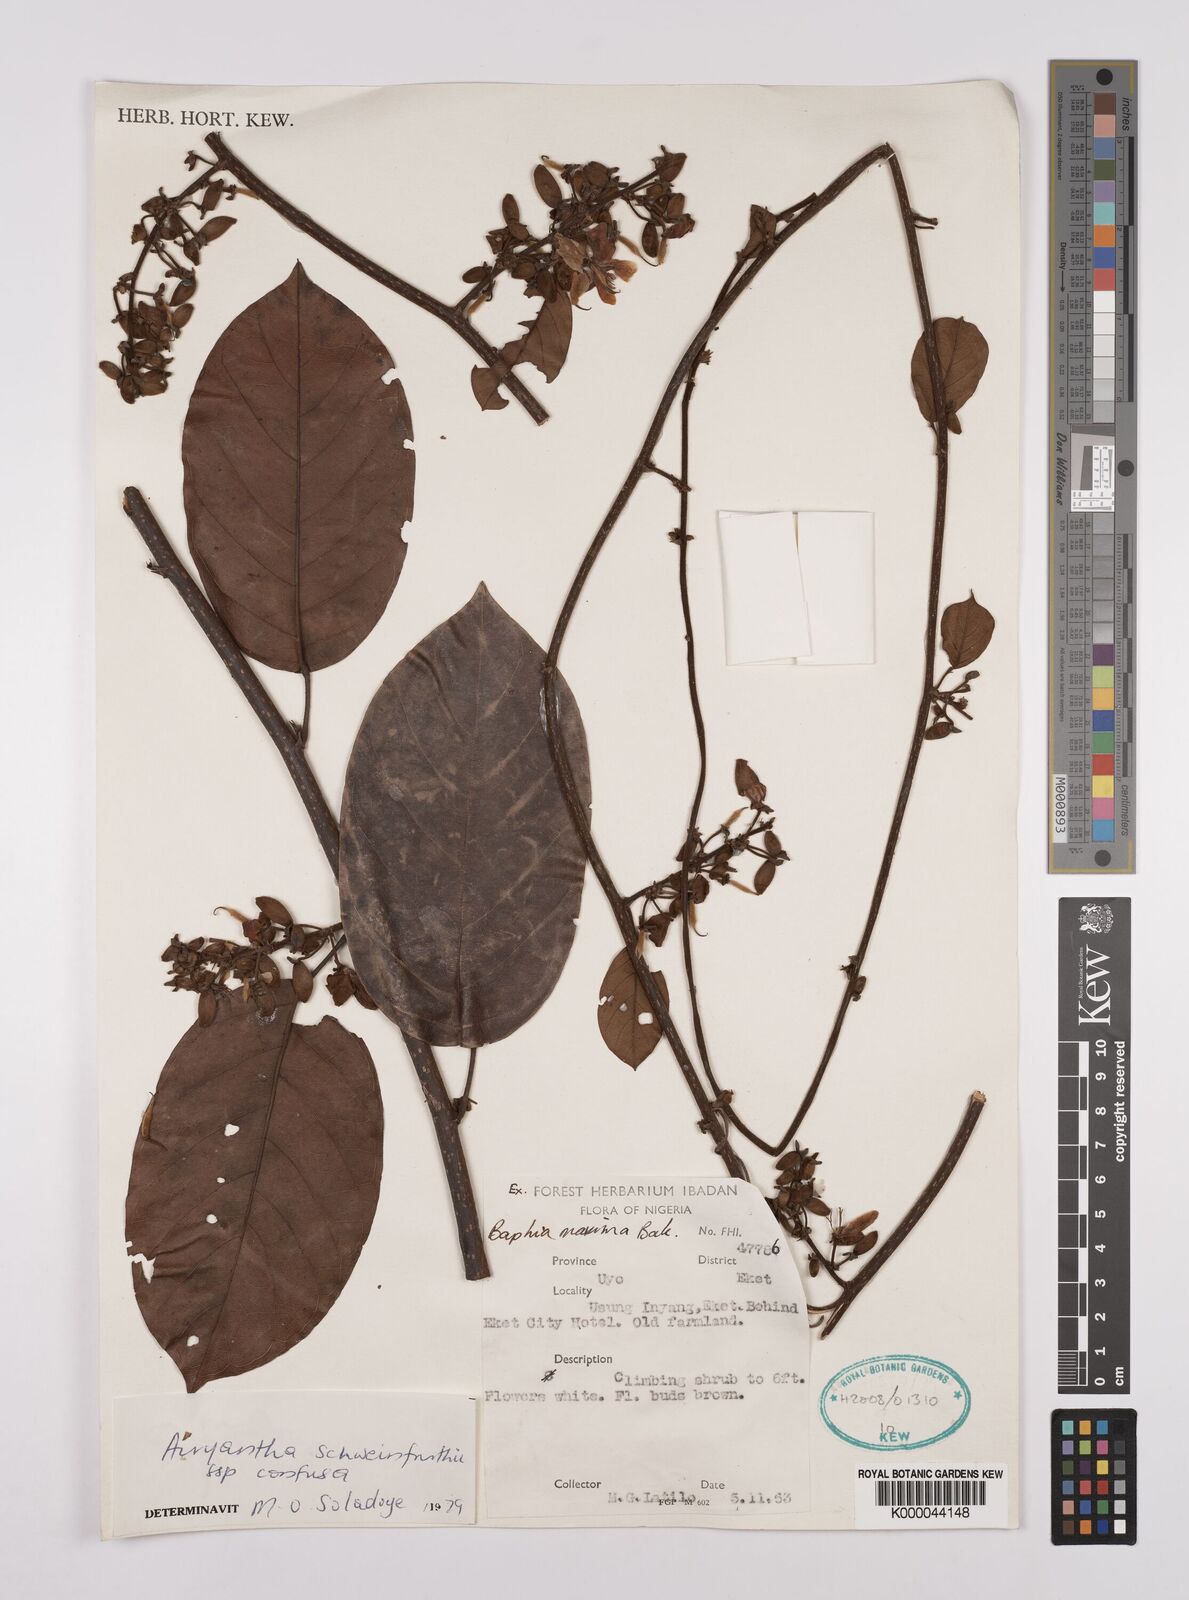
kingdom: Plantae
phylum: Tracheophyta
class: Magnoliopsida
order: Fabales
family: Fabaceae
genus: Airyantha
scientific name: Airyantha schweinfurthii
